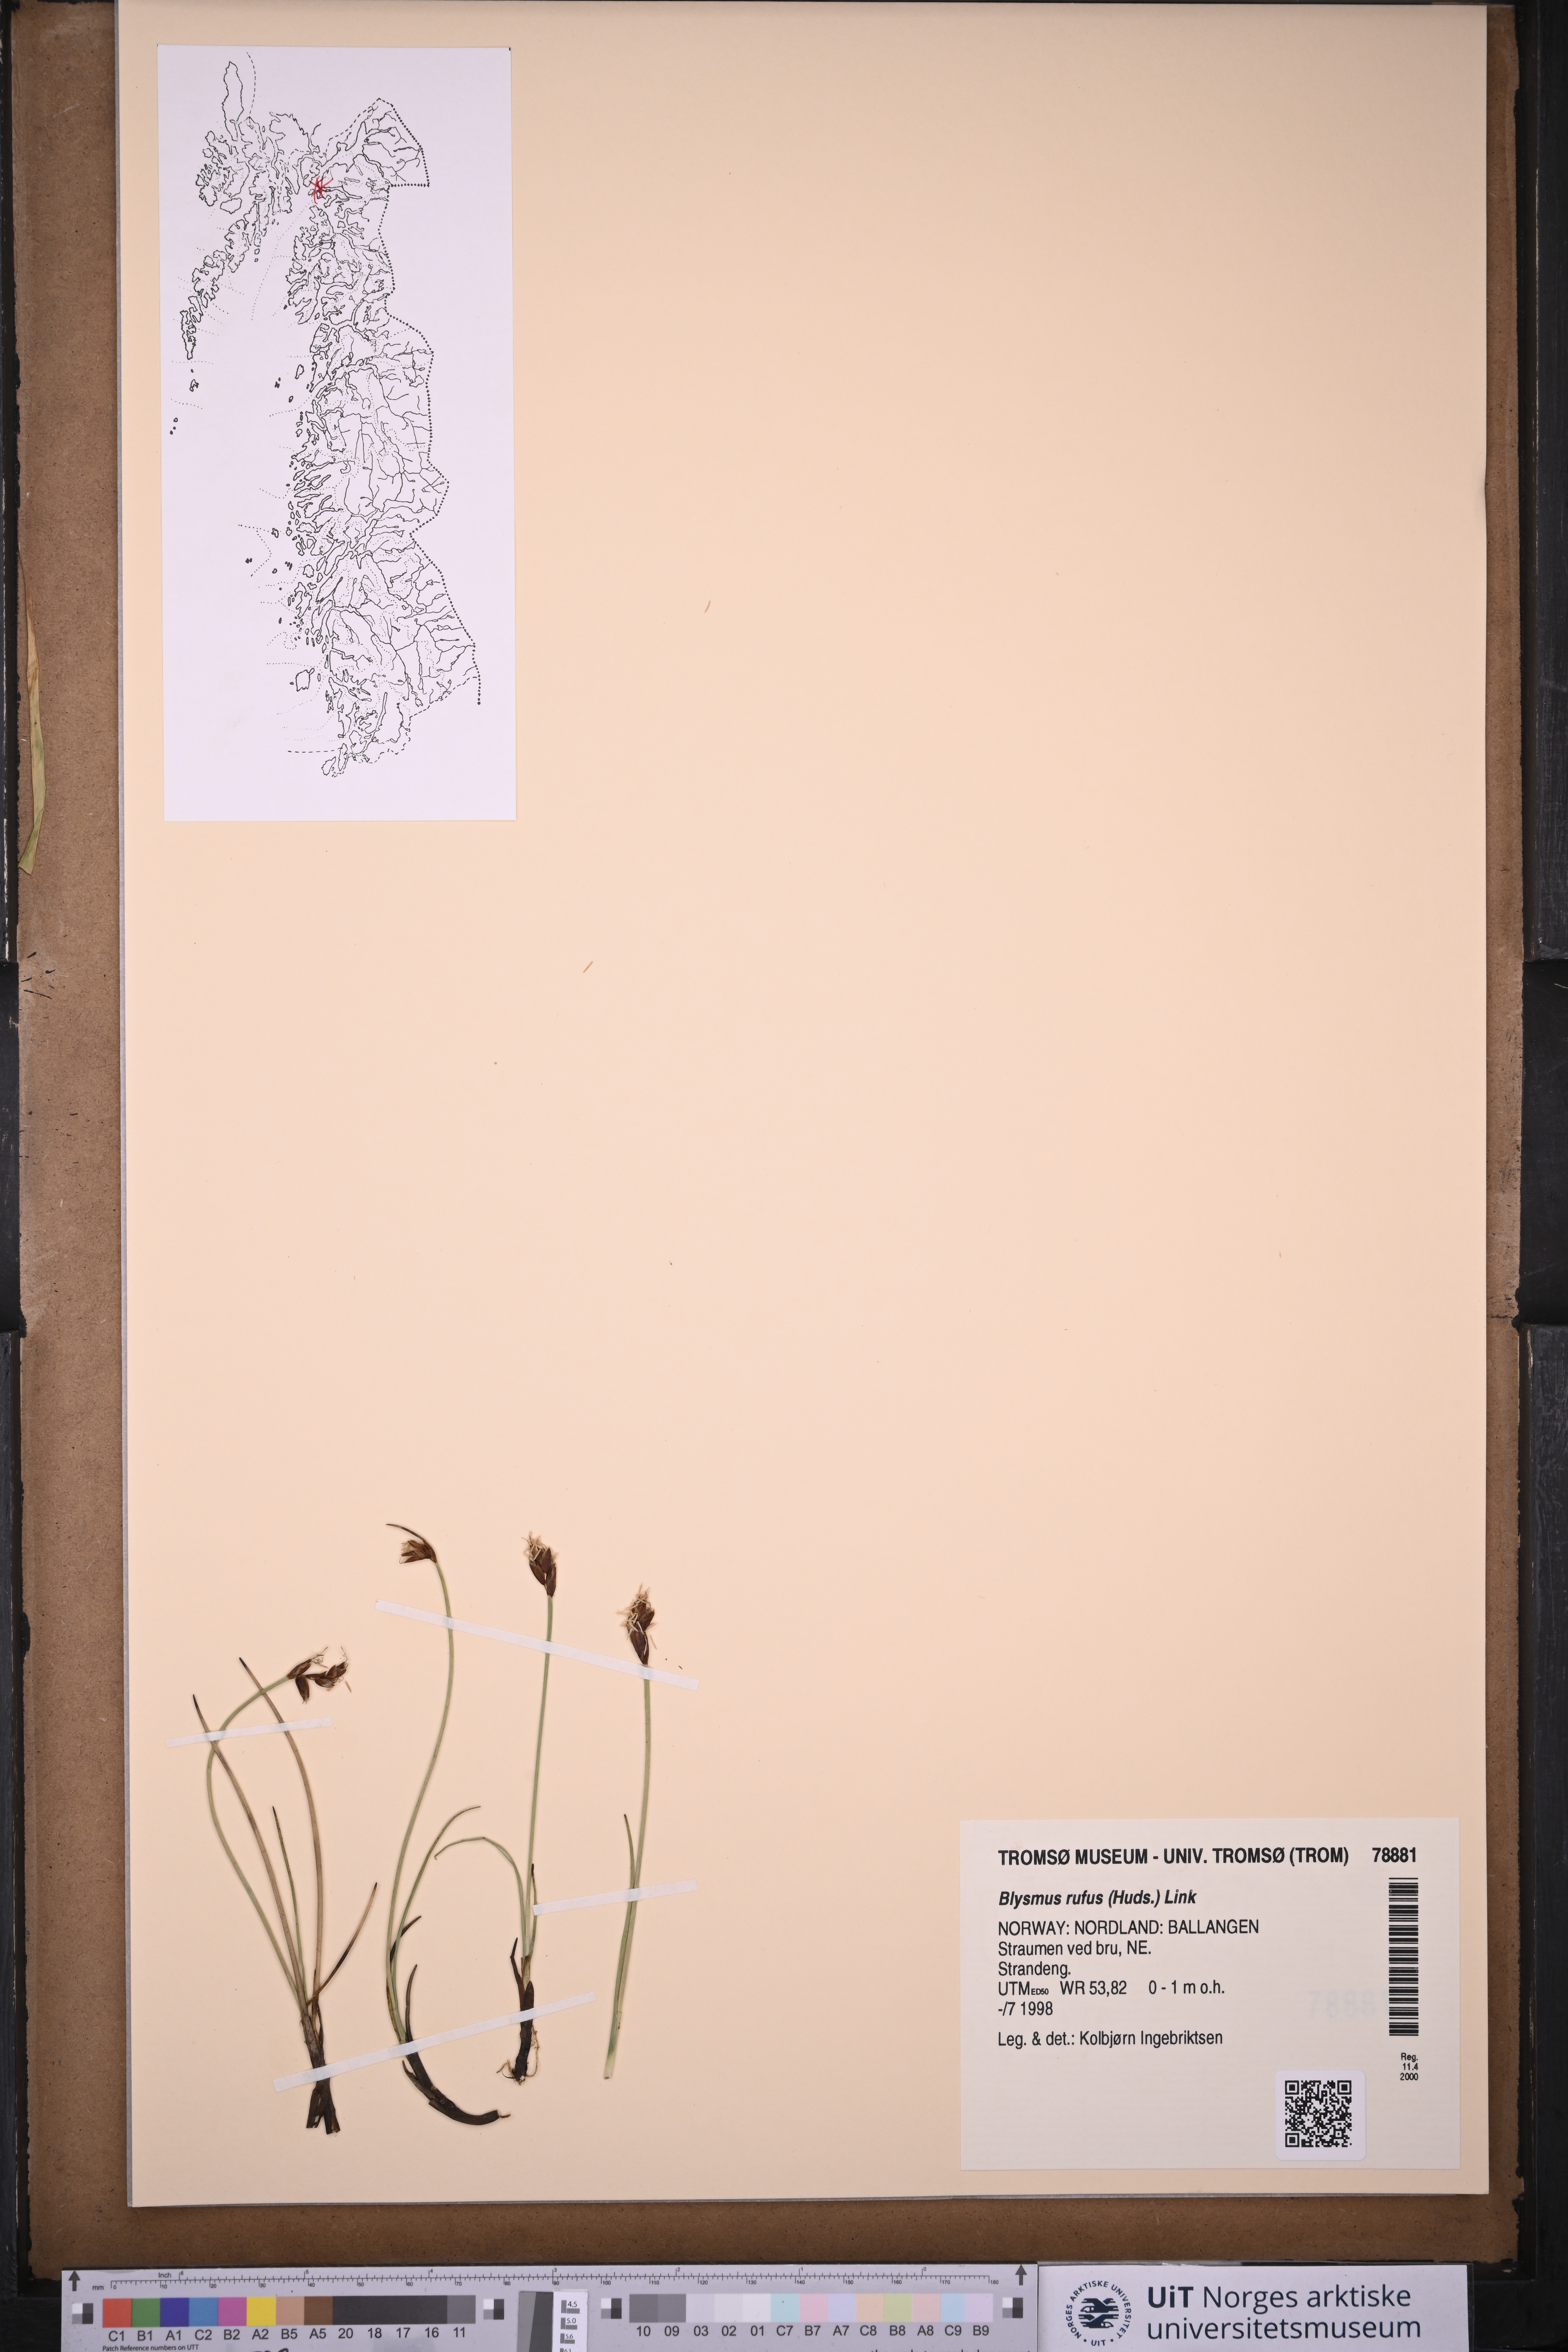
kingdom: Plantae
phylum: Tracheophyta
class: Liliopsida
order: Poales
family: Cyperaceae
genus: Blysmus
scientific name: Blysmus rufus
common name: Saltmarsh flat-sedge
